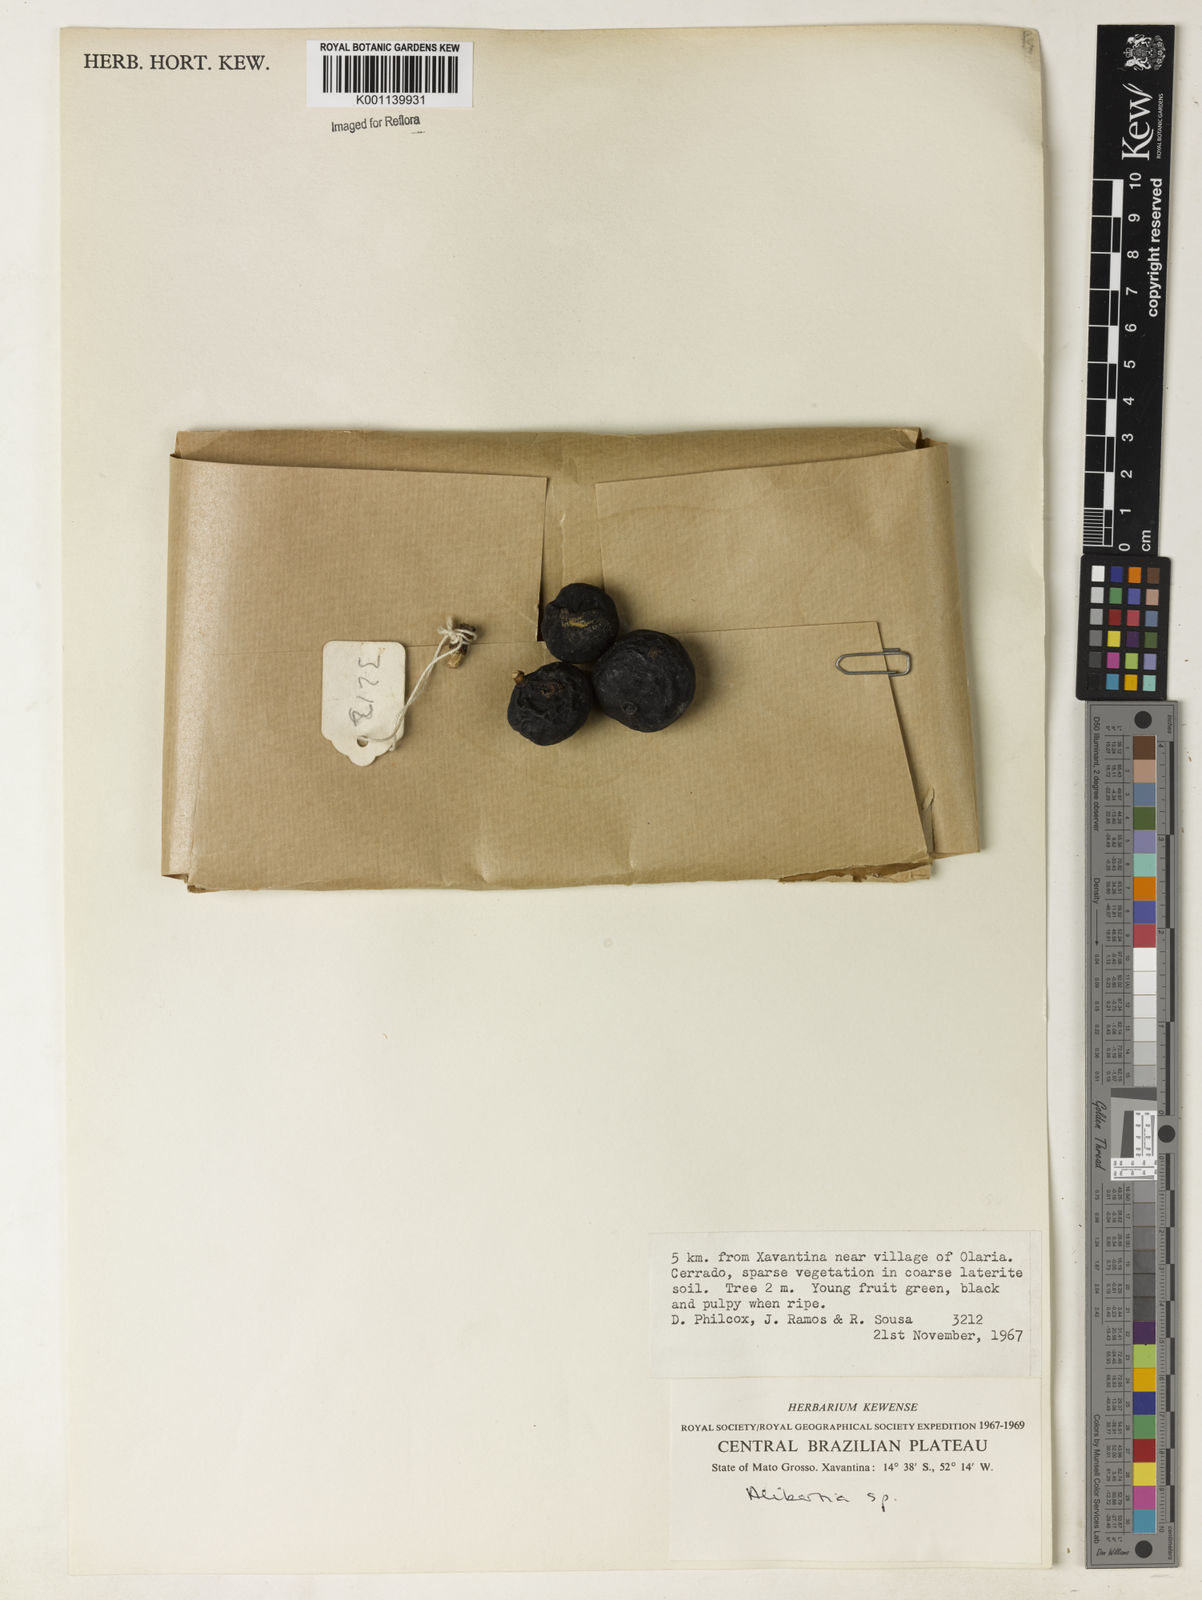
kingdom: Plantae
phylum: Tracheophyta
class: Magnoliopsida
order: Gentianales
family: Rubiaceae
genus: Alibertia
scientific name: Alibertia
